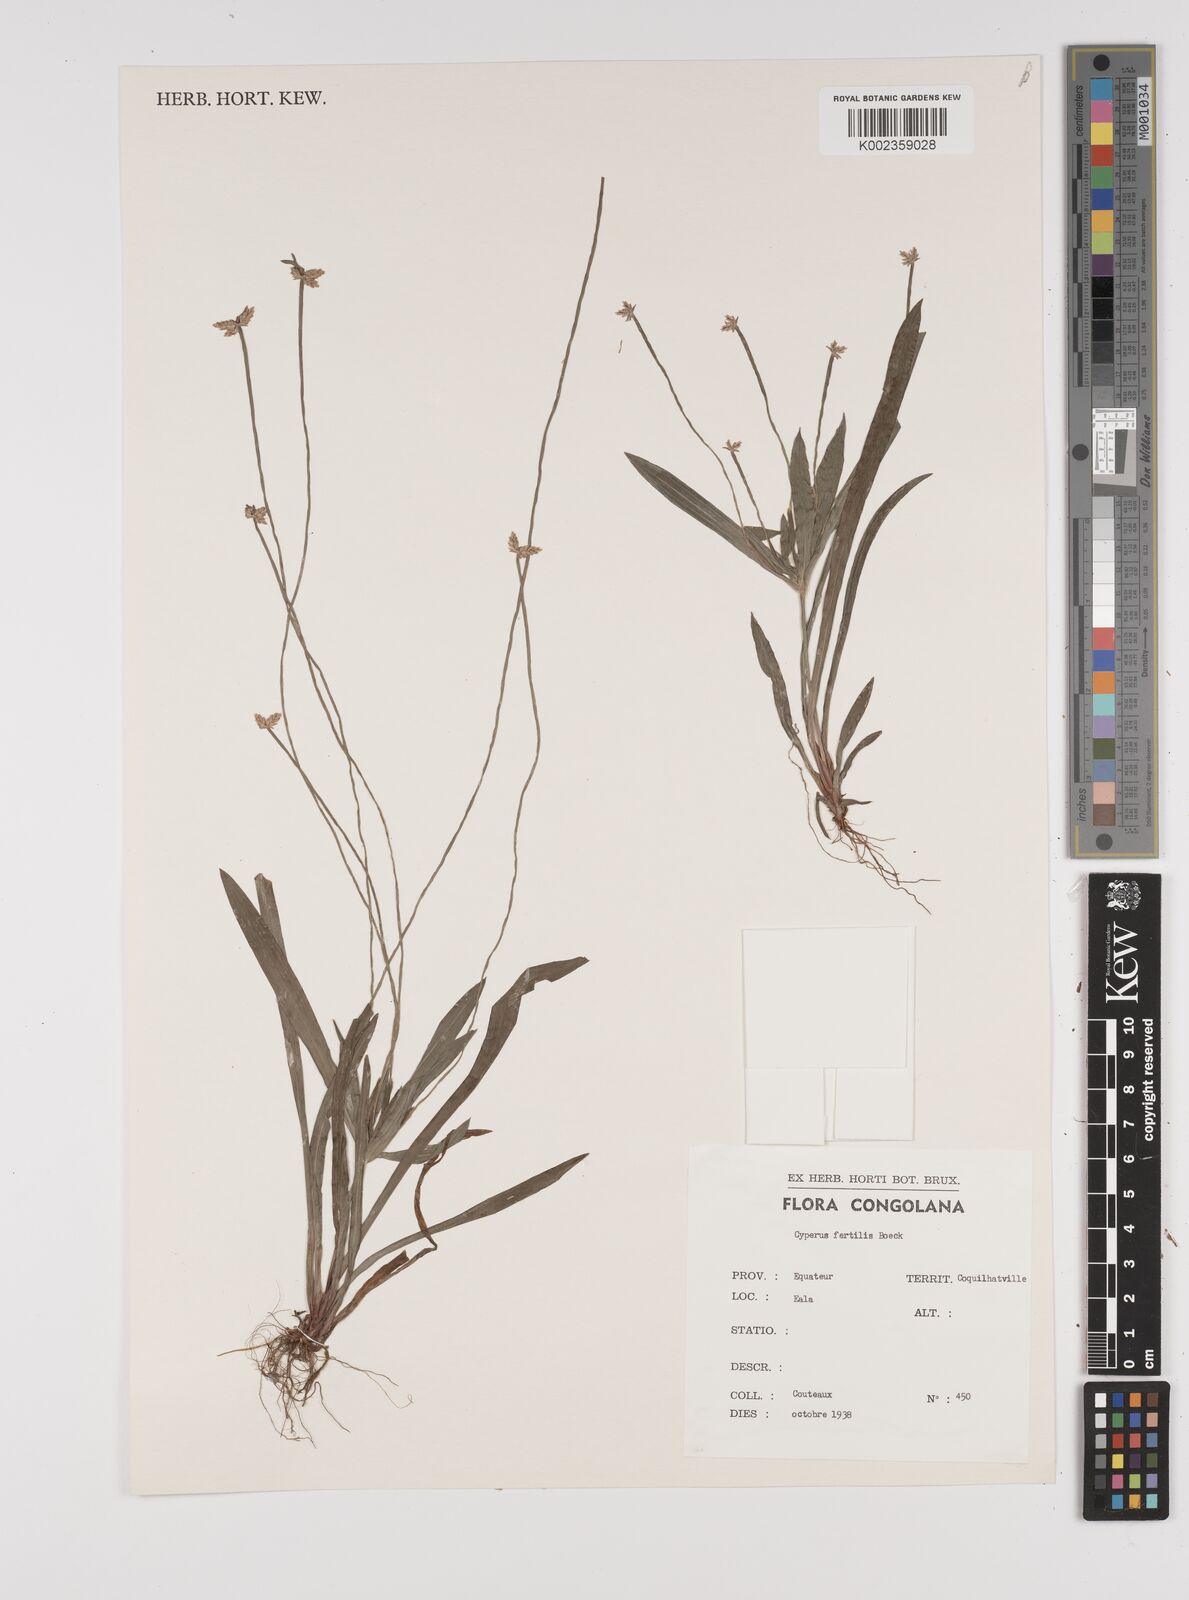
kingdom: Plantae
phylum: Tracheophyta
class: Liliopsida
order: Poales
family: Cyperaceae
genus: Cyperus
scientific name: Cyperus fertilis
